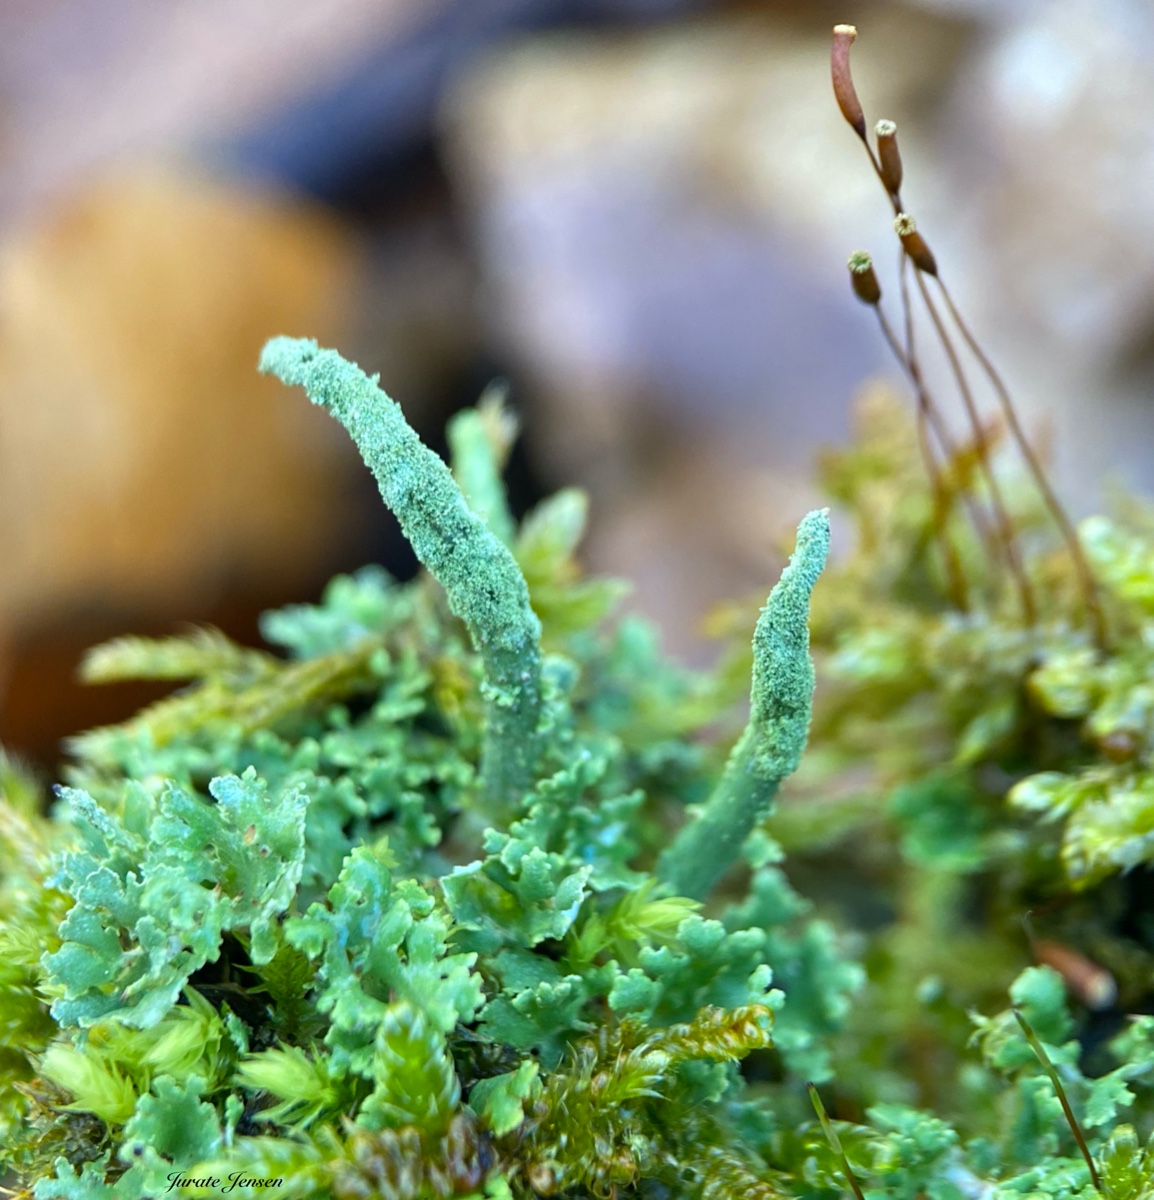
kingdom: Fungi
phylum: Ascomycota
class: Lecanoromycetes
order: Lecanorales
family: Cladoniaceae
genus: Cladonia
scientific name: Cladonia coniocraea
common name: træfods-bægerlav
